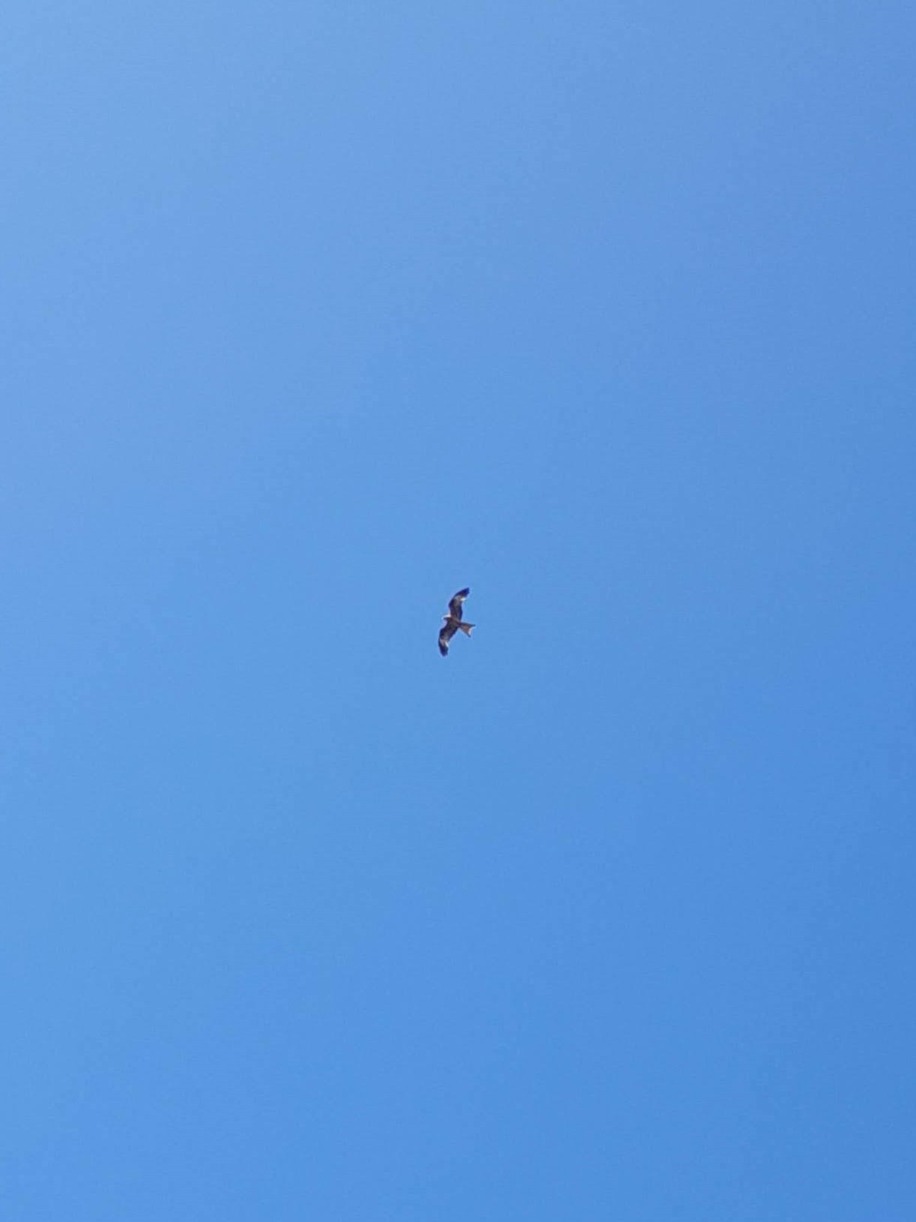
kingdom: Animalia
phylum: Chordata
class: Aves
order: Accipitriformes
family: Accipitridae
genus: Milvus
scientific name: Milvus milvus
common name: Rød glente
